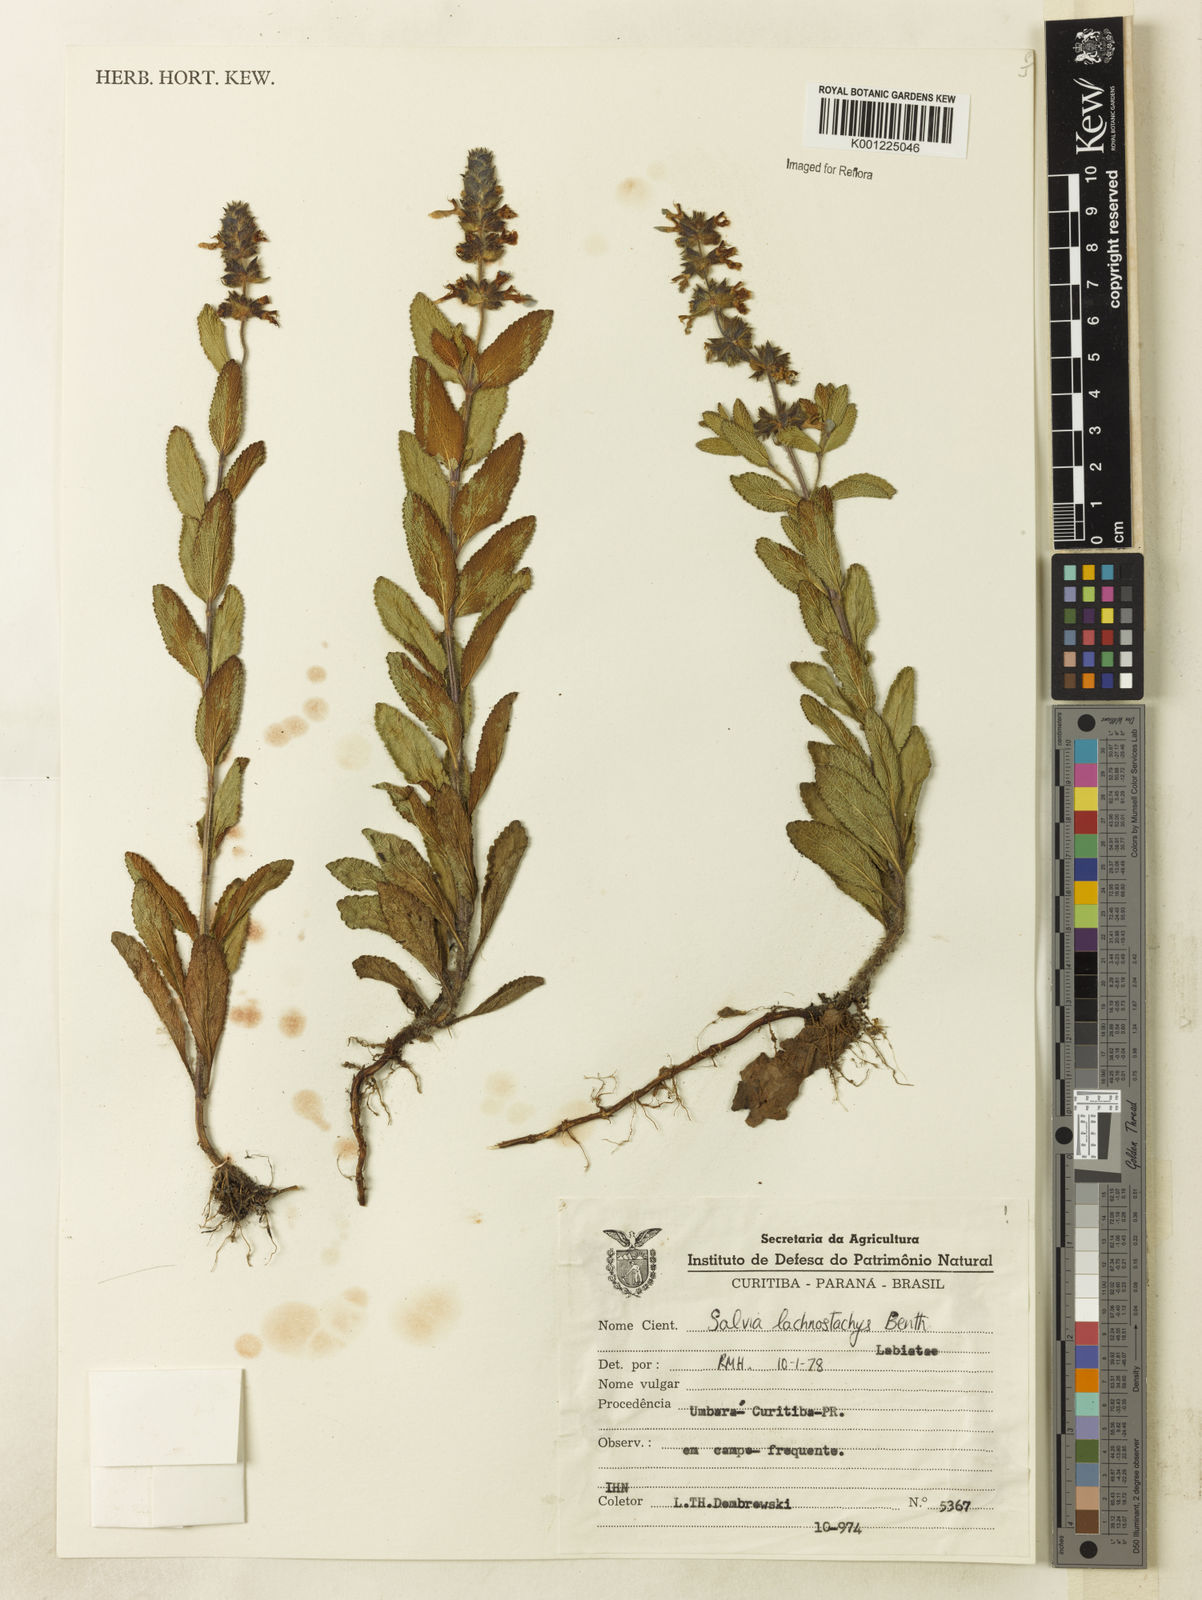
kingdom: Plantae
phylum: Tracheophyta
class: Magnoliopsida
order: Lamiales
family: Lamiaceae
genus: Salvia
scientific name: Salvia lachnostachys
